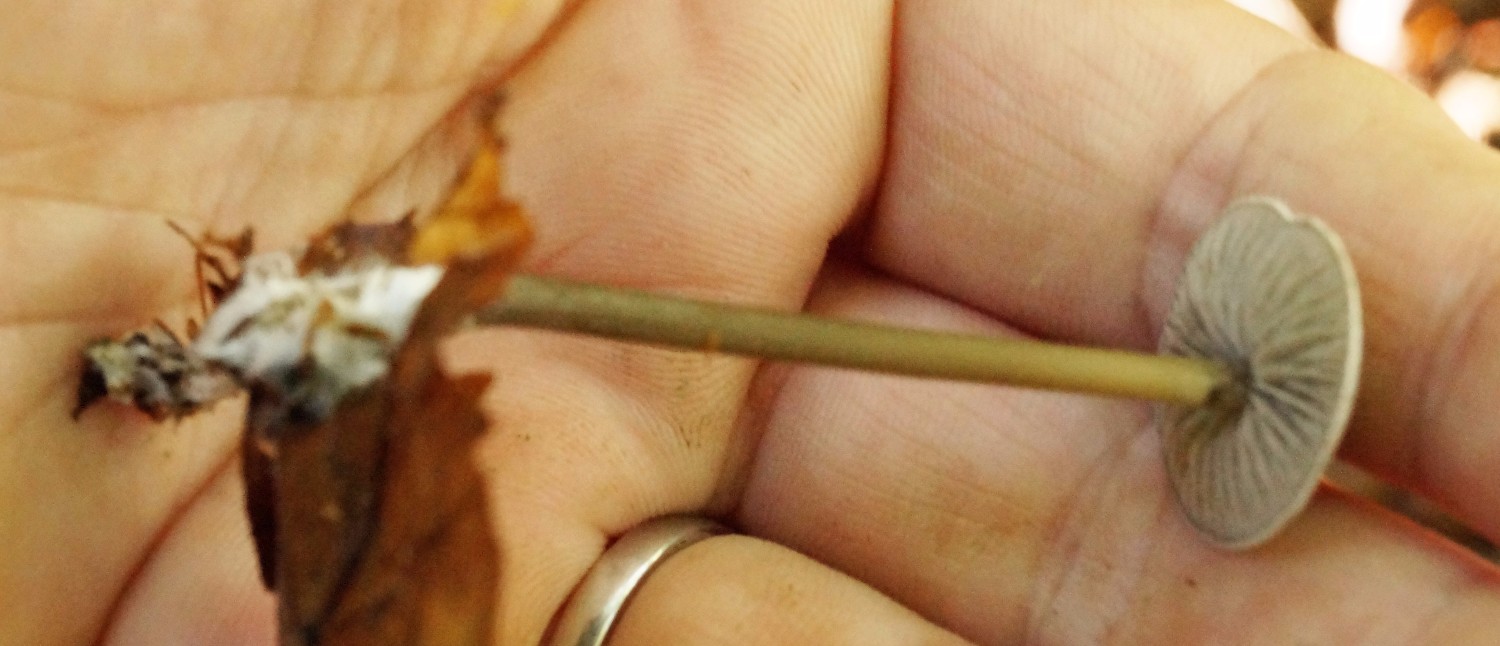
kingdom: Fungi
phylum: Basidiomycota
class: Agaricomycetes
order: Agaricales
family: Lyophyllaceae
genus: Tephrocybe
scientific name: Tephrocybe rancida
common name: mel-gråblad
